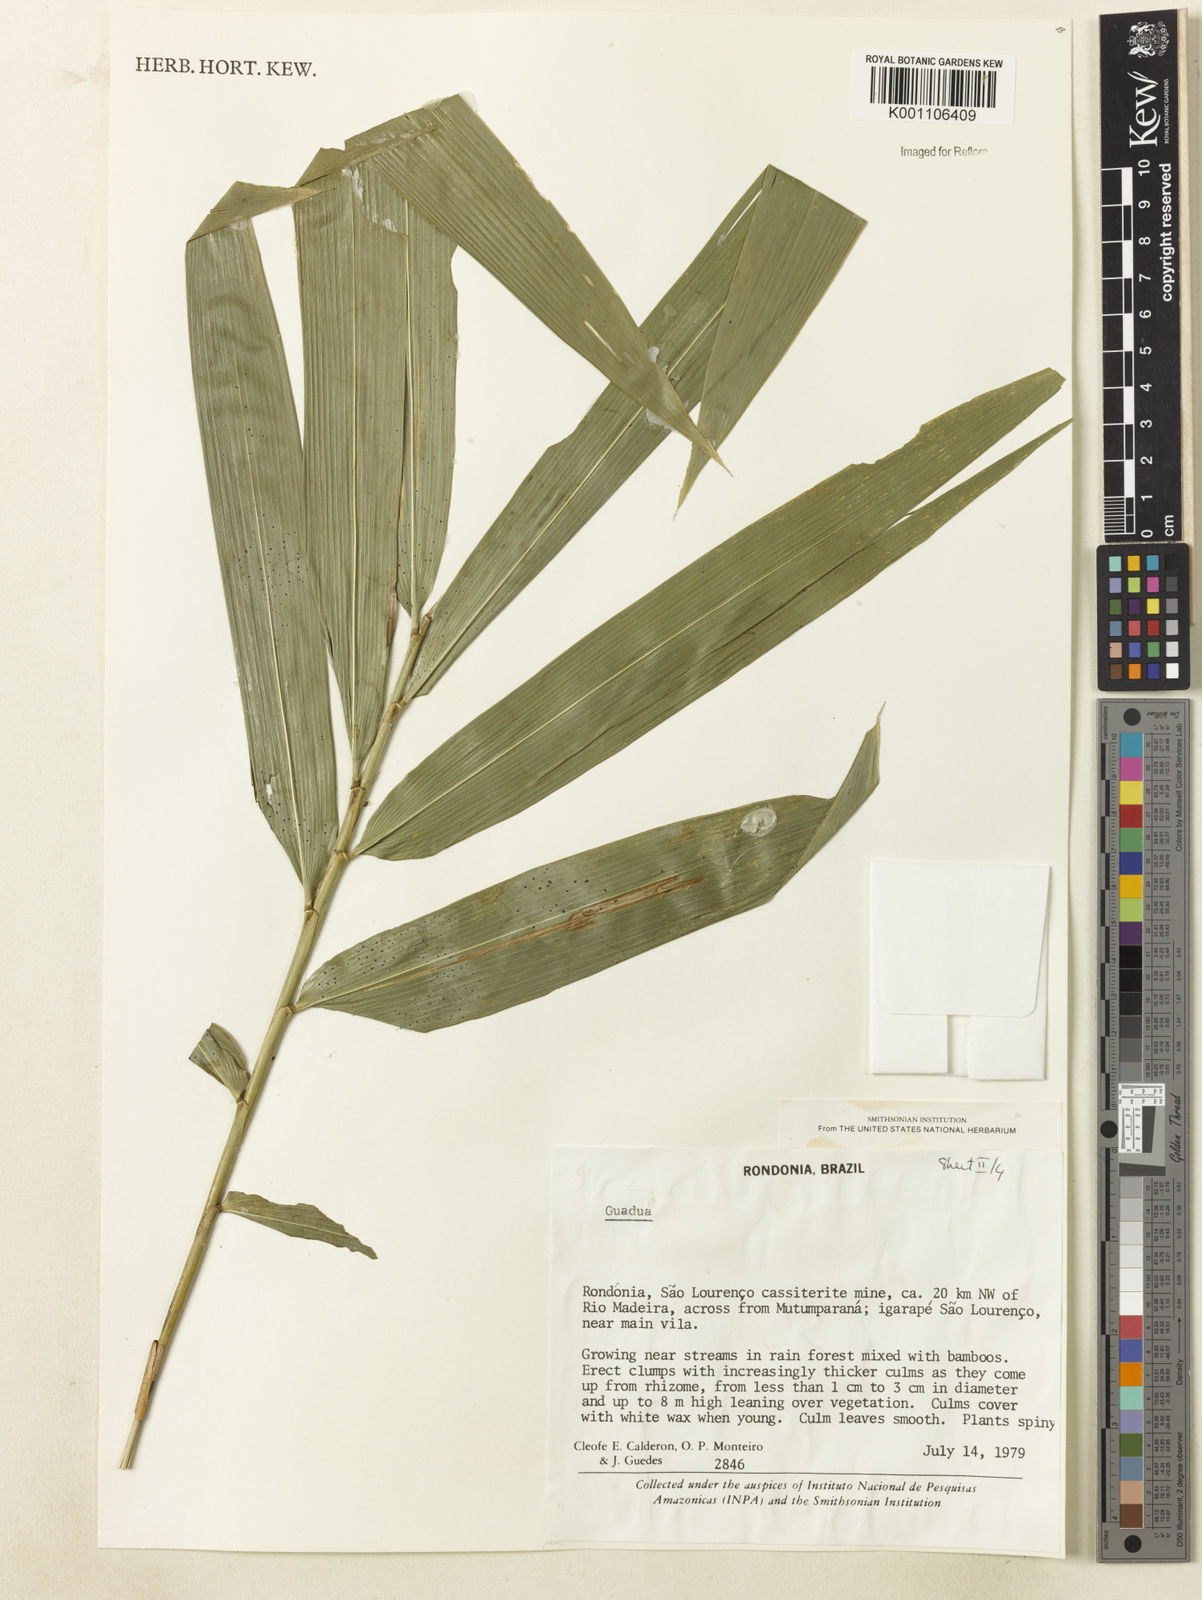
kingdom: Plantae
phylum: Tracheophyta
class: Liliopsida
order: Poales
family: Poaceae
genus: Guadua
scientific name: Guadua
